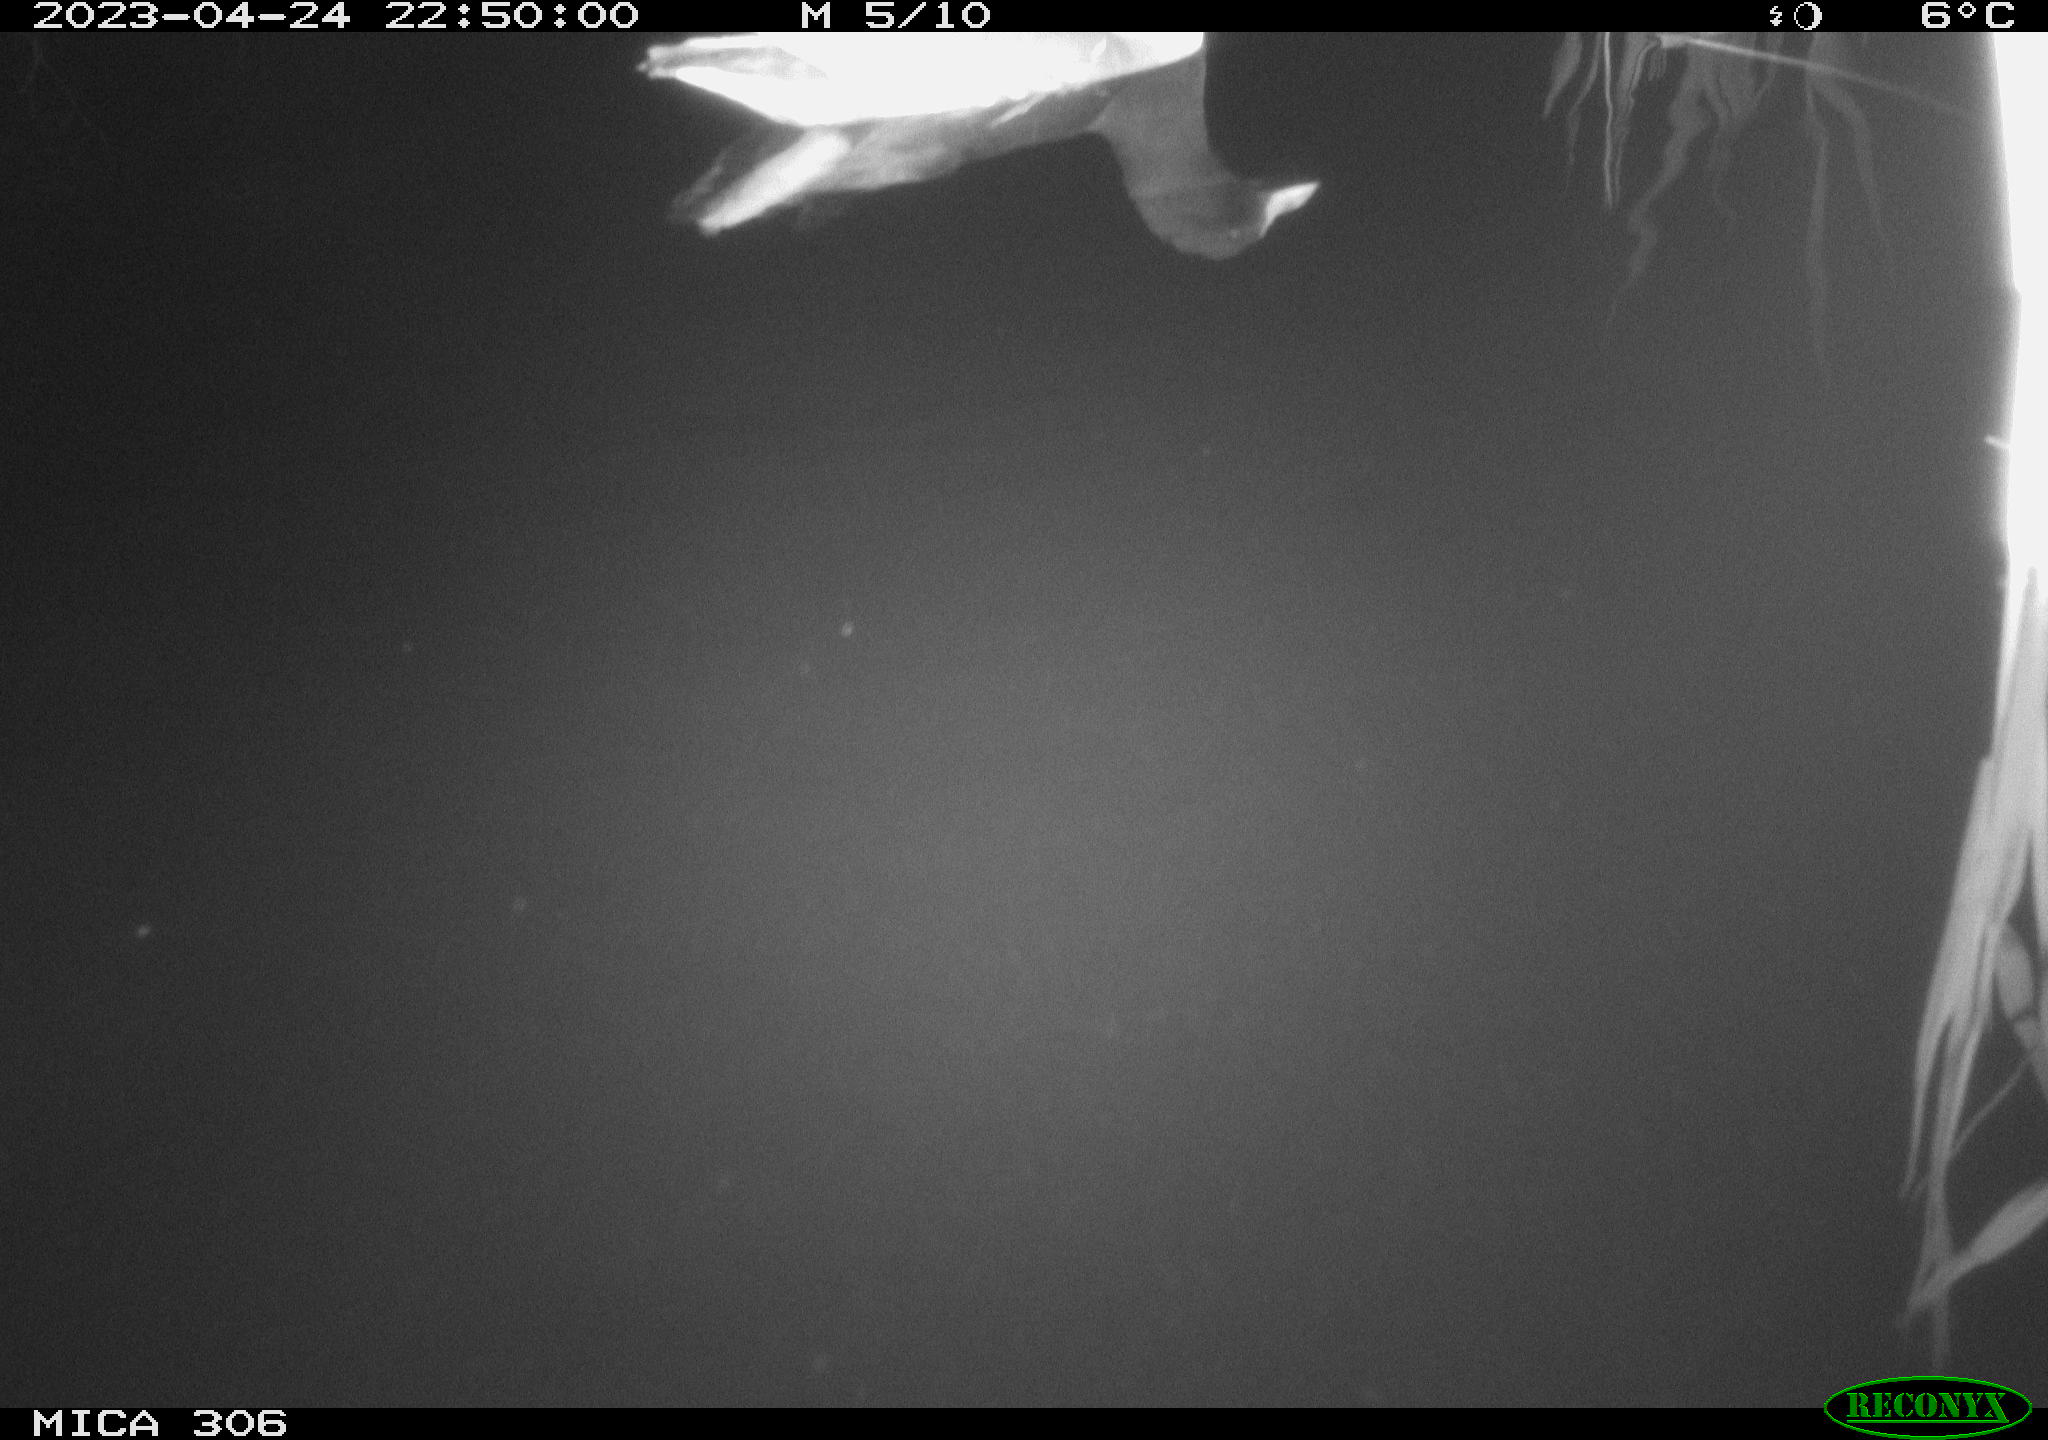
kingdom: Animalia
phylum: Chordata
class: Aves
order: Gruiformes
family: Rallidae
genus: Gallinula
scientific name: Gallinula chloropus
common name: Common moorhen
